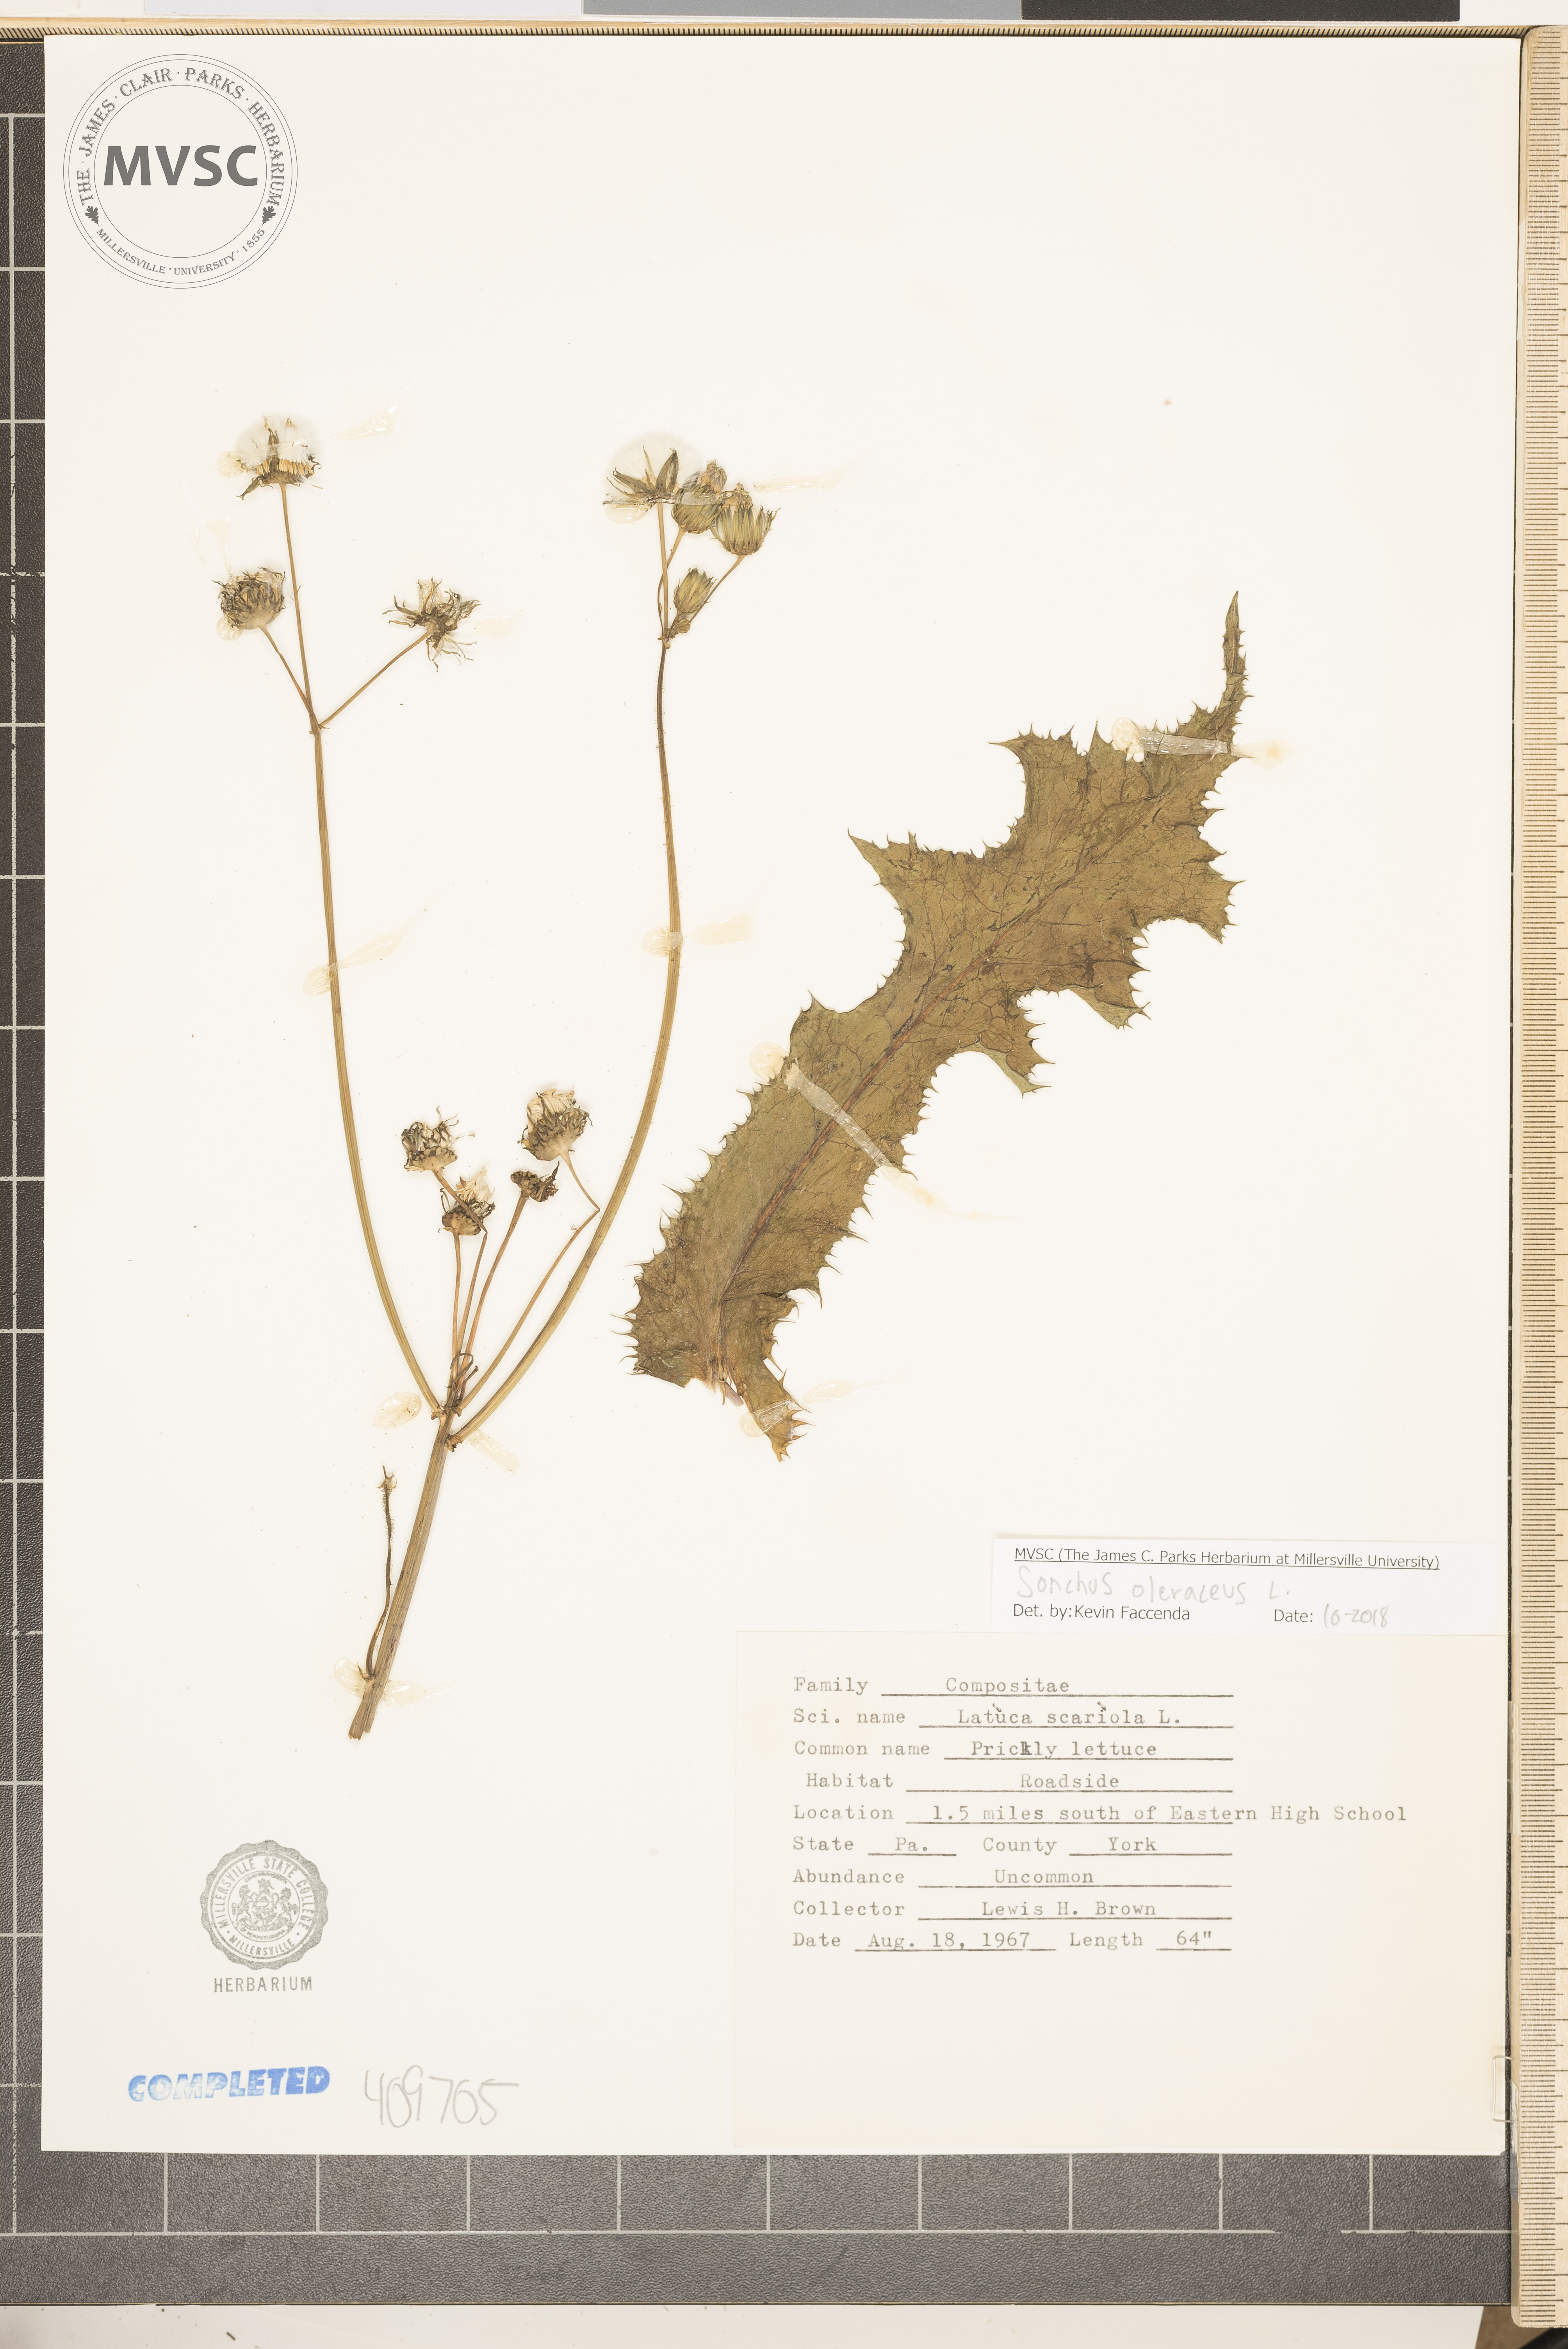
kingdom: Plantae
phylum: Tracheophyta
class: Magnoliopsida
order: Asterales
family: Asteraceae
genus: Sonchus
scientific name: Sonchus oleraceus
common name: Common sowthistle
